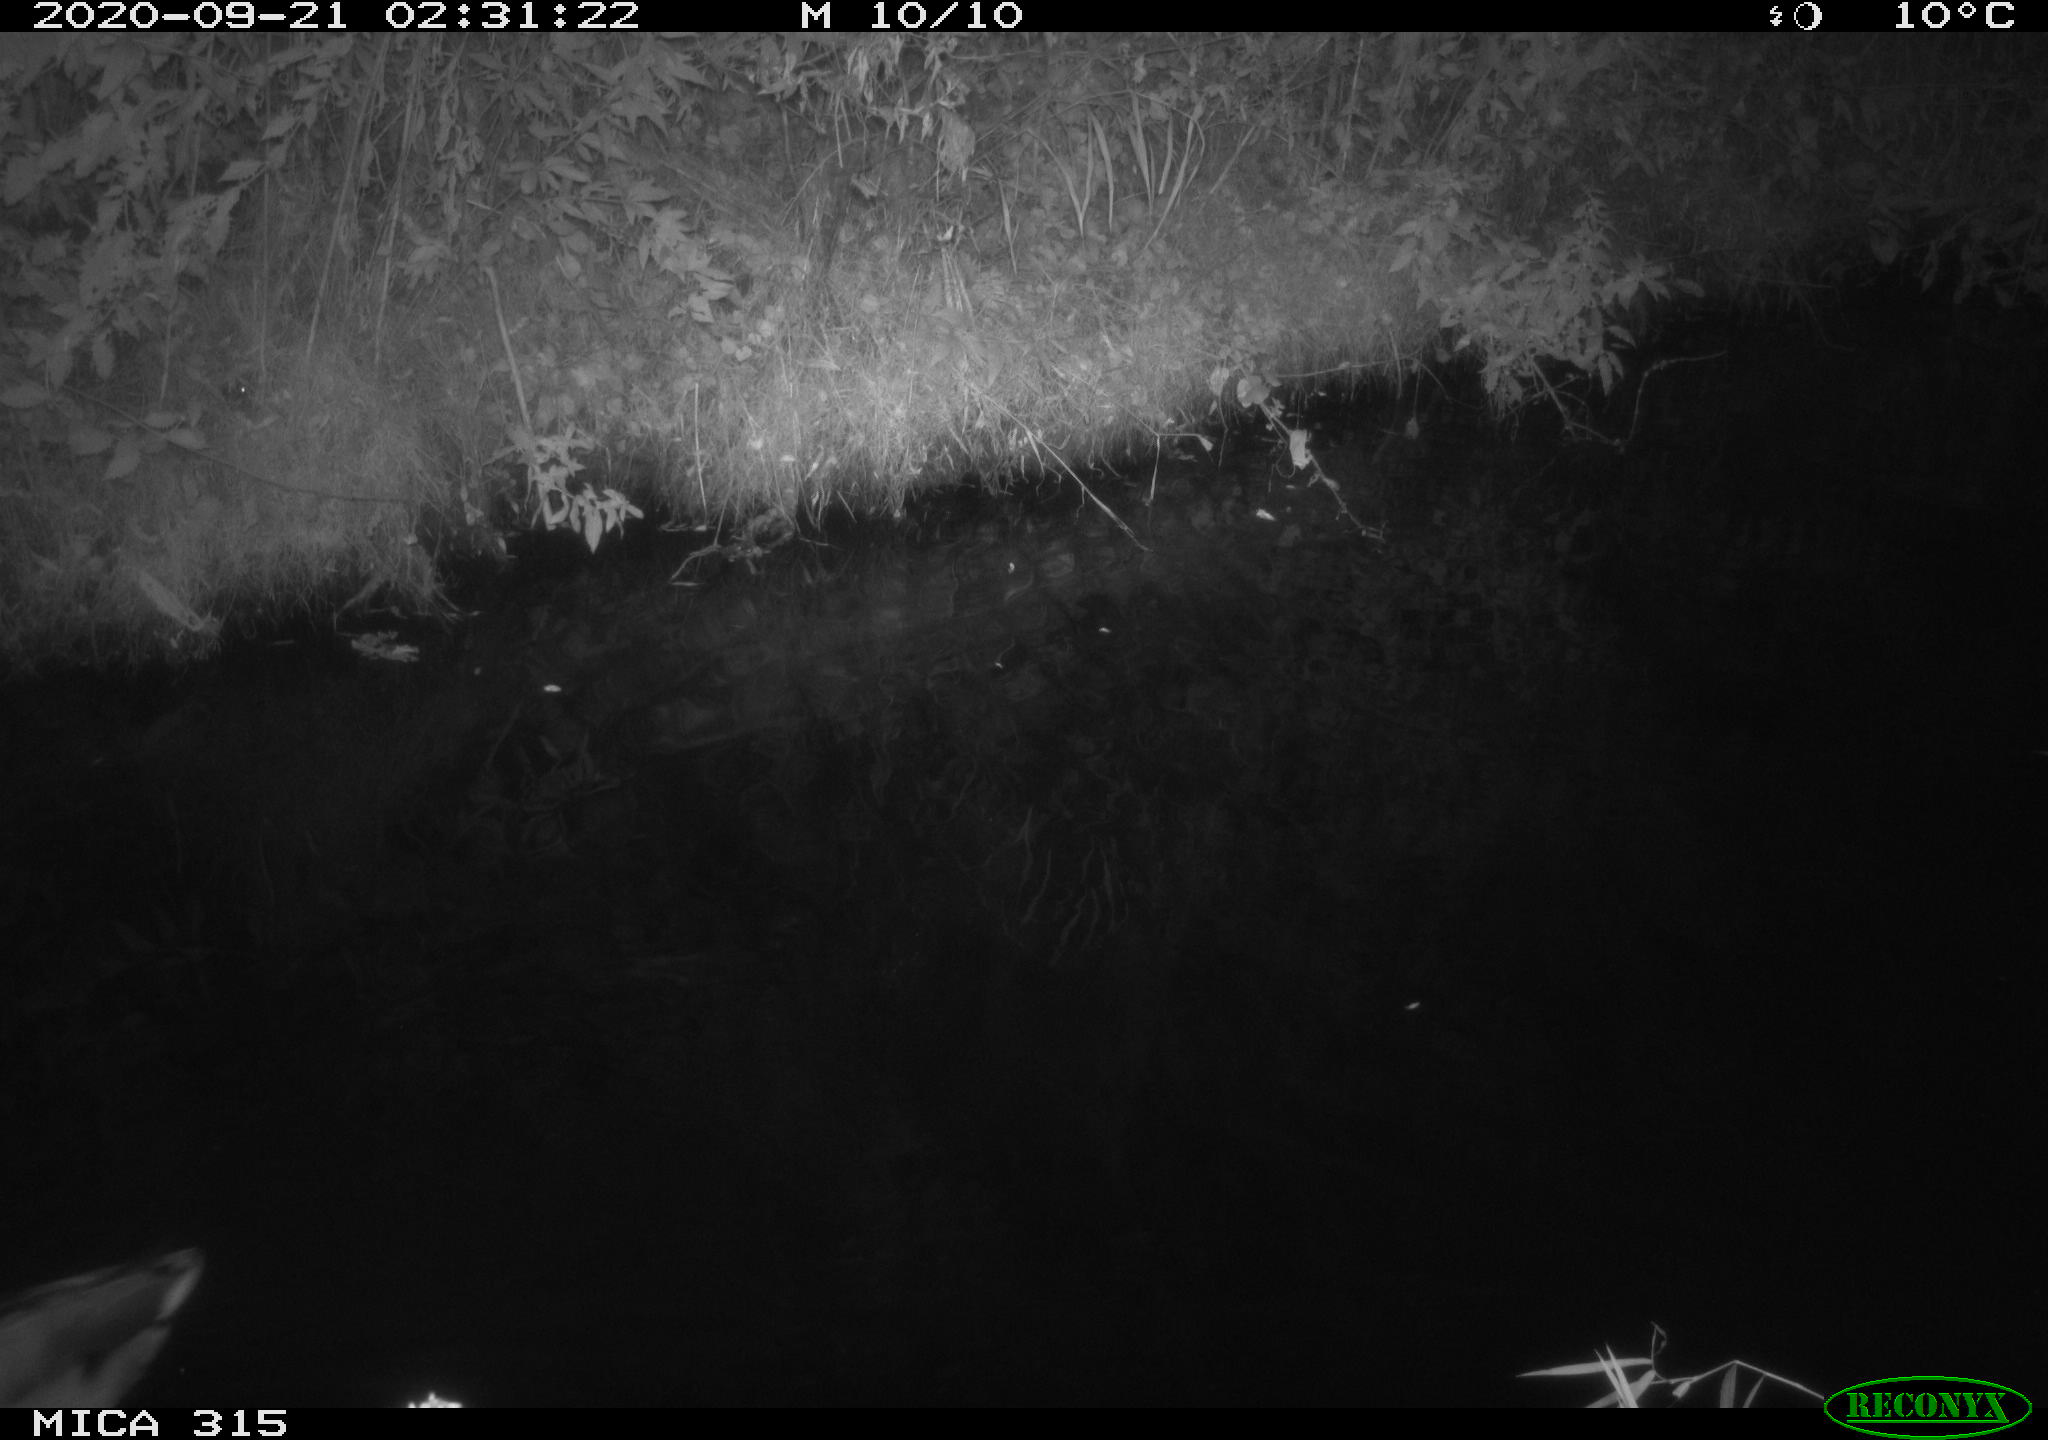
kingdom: Animalia
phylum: Chordata
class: Aves
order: Anseriformes
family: Anatidae
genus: Anas
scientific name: Anas platyrhynchos
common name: Mallard
